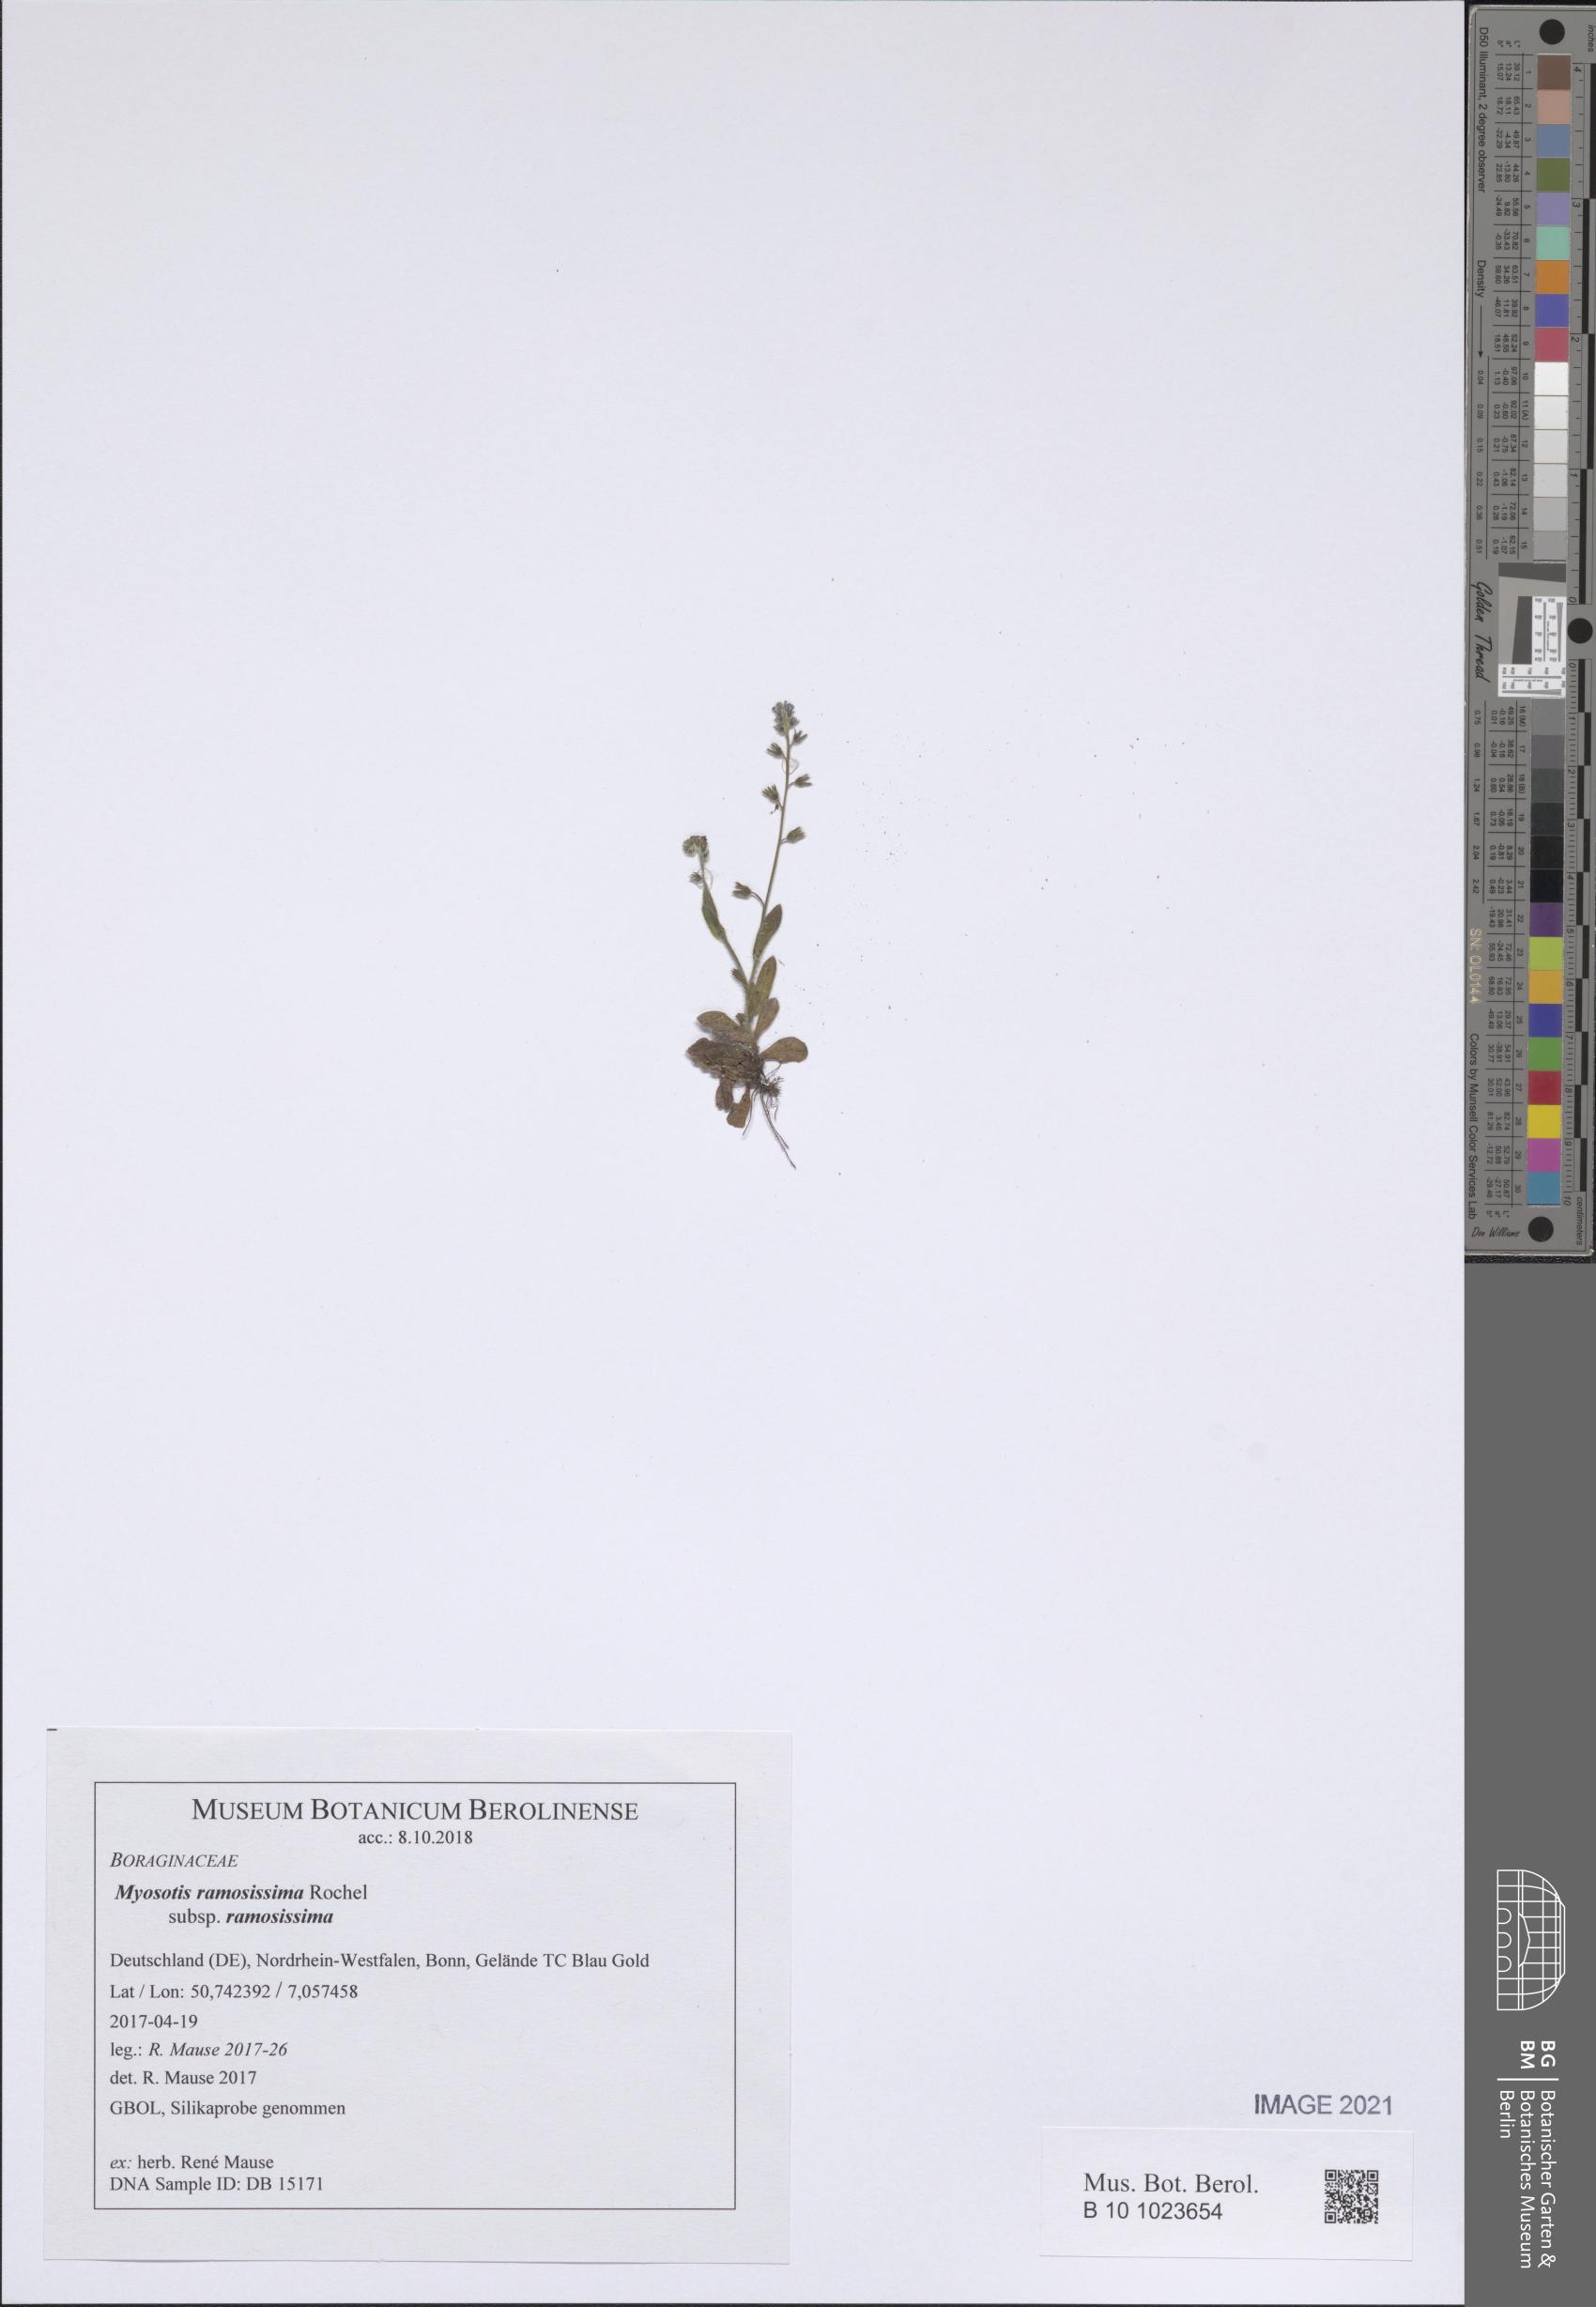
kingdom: Plantae
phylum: Tracheophyta
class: Magnoliopsida
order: Boraginales
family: Boraginaceae
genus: Myosotis
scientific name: Myosotis ramosissima
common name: Early forget-me-not
